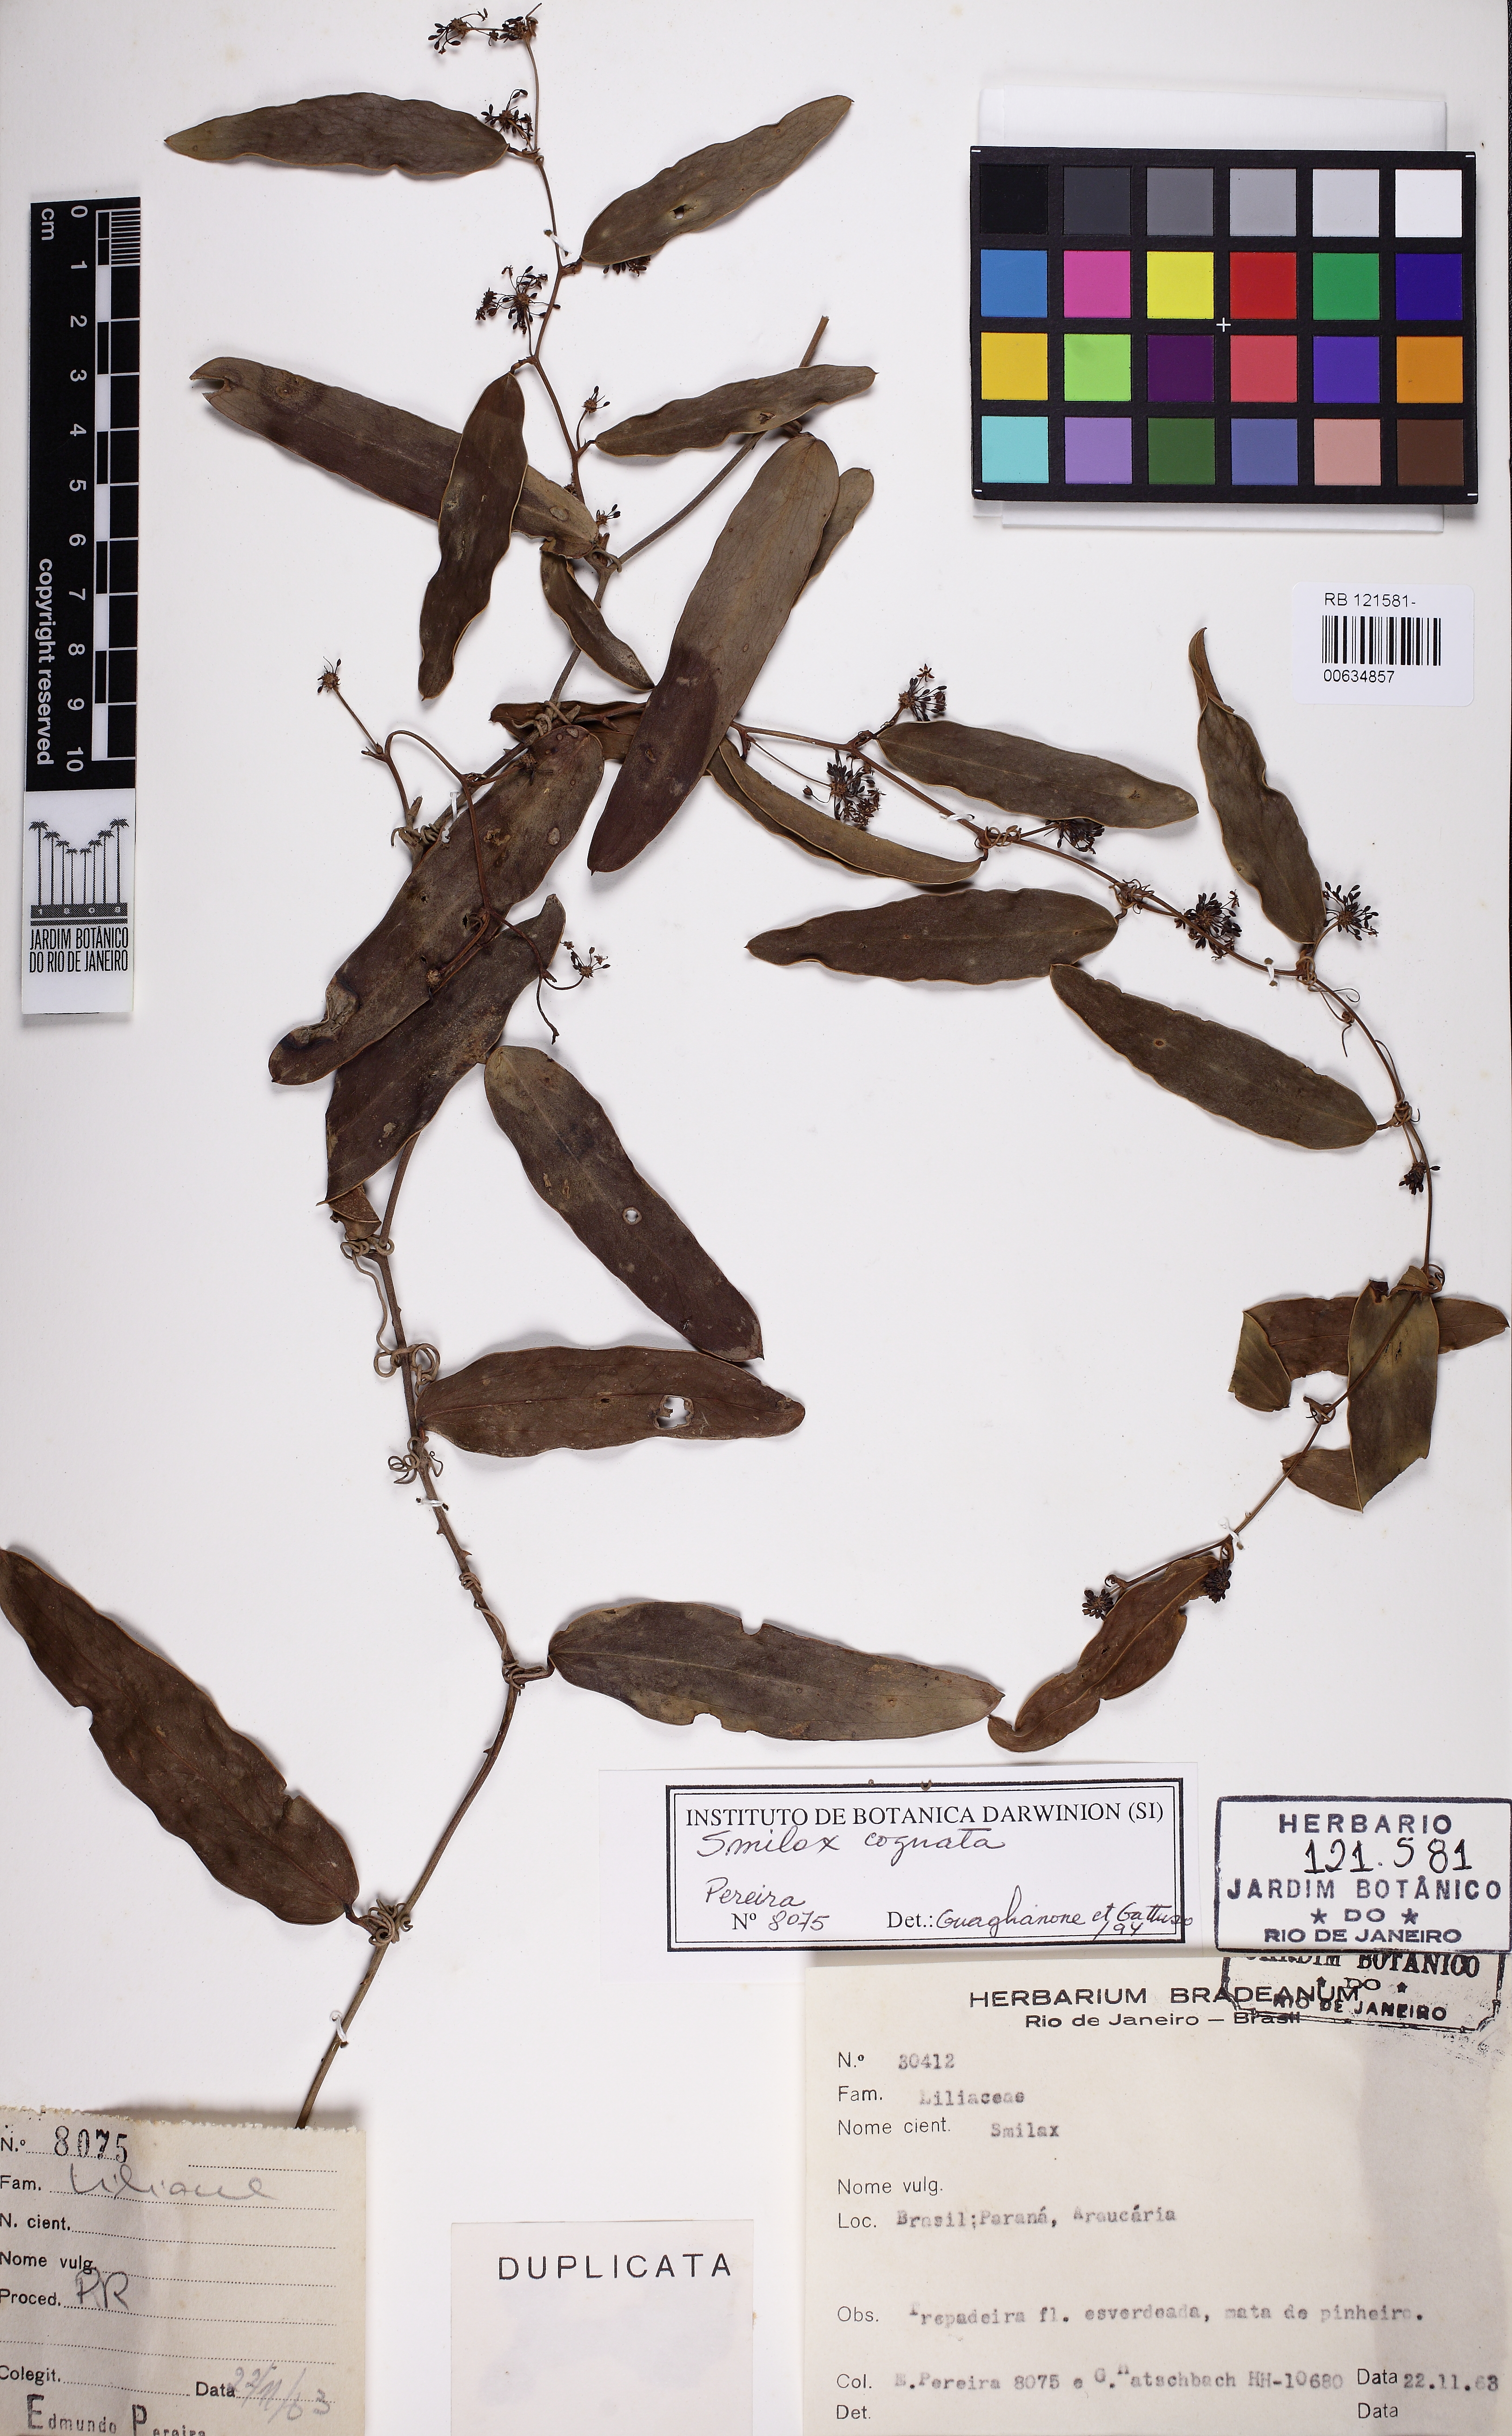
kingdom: Plantae
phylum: Tracheophyta
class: Liliopsida
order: Liliales
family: Smilacaceae
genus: Smilax
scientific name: Smilax cognata
